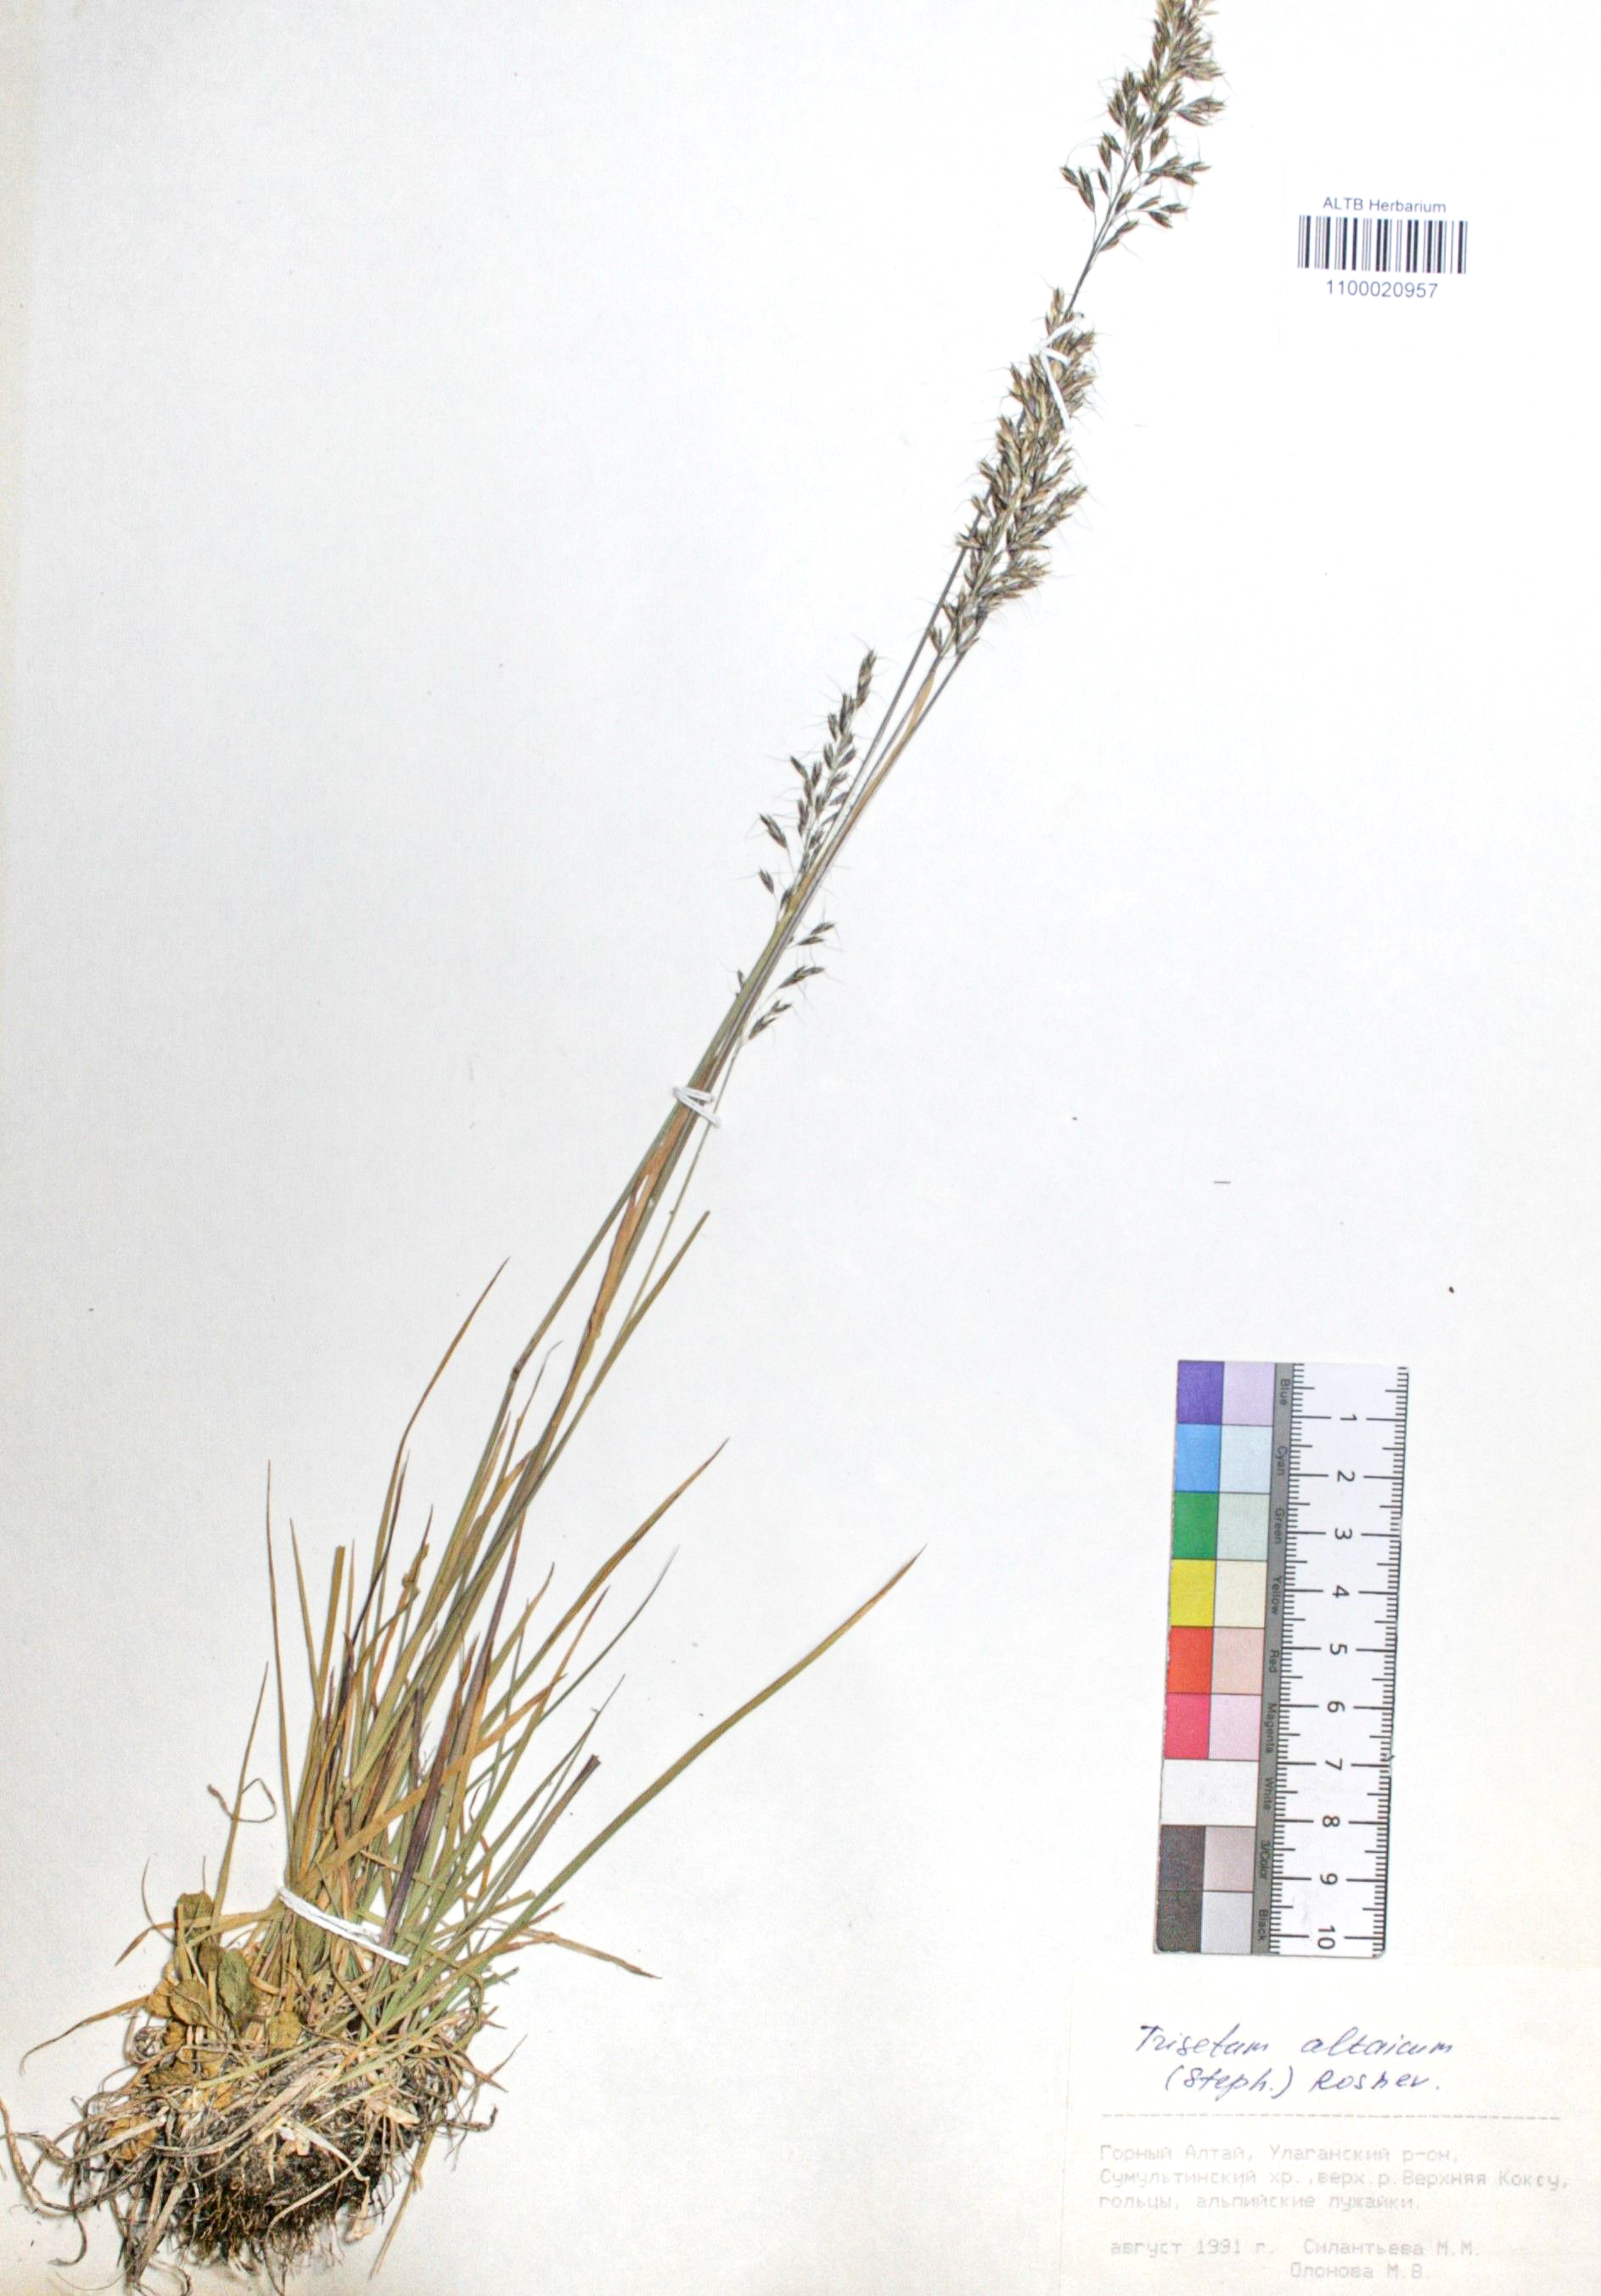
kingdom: Plantae
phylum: Tracheophyta
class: Liliopsida
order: Poales
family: Poaceae
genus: Trisetum
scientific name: Trisetum altaicum
